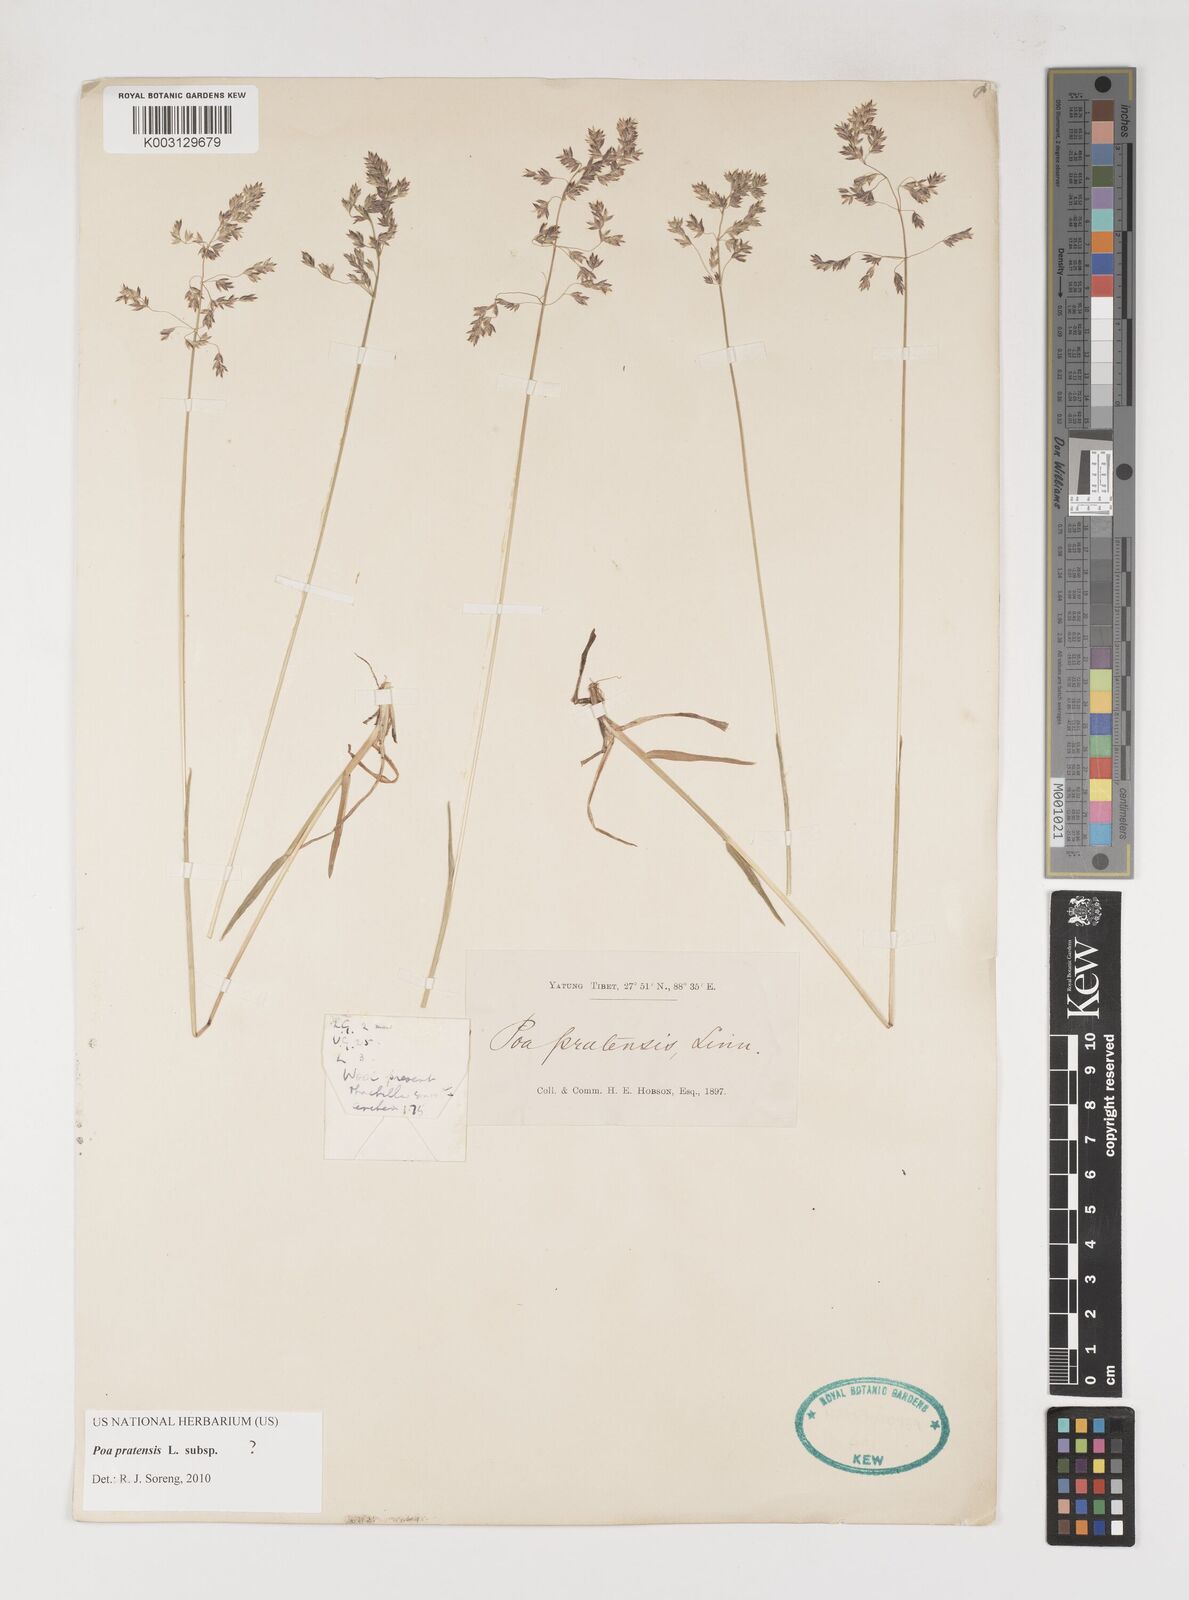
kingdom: Plantae
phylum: Tracheophyta
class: Liliopsida
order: Poales
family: Poaceae
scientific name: Poaceae
